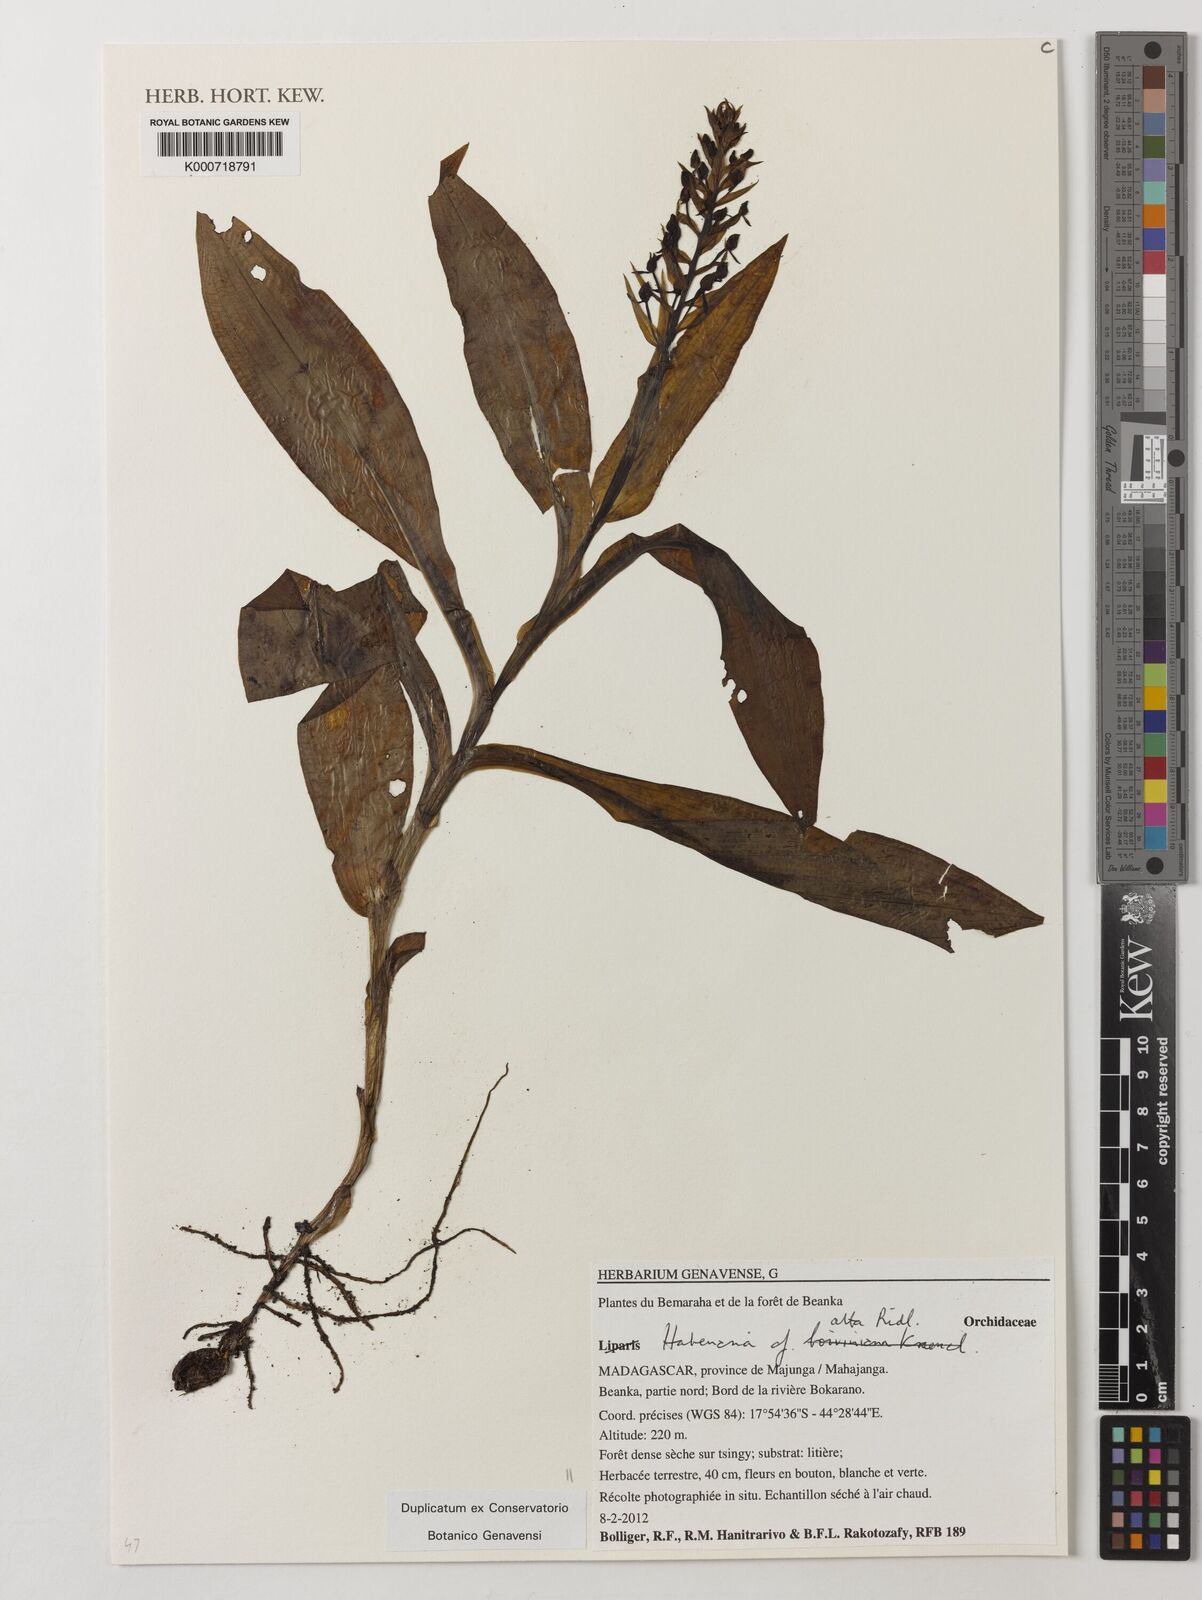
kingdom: Plantae
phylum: Tracheophyta
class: Liliopsida
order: Asparagales
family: Orchidaceae
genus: Habenaria
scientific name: Habenaria alta
